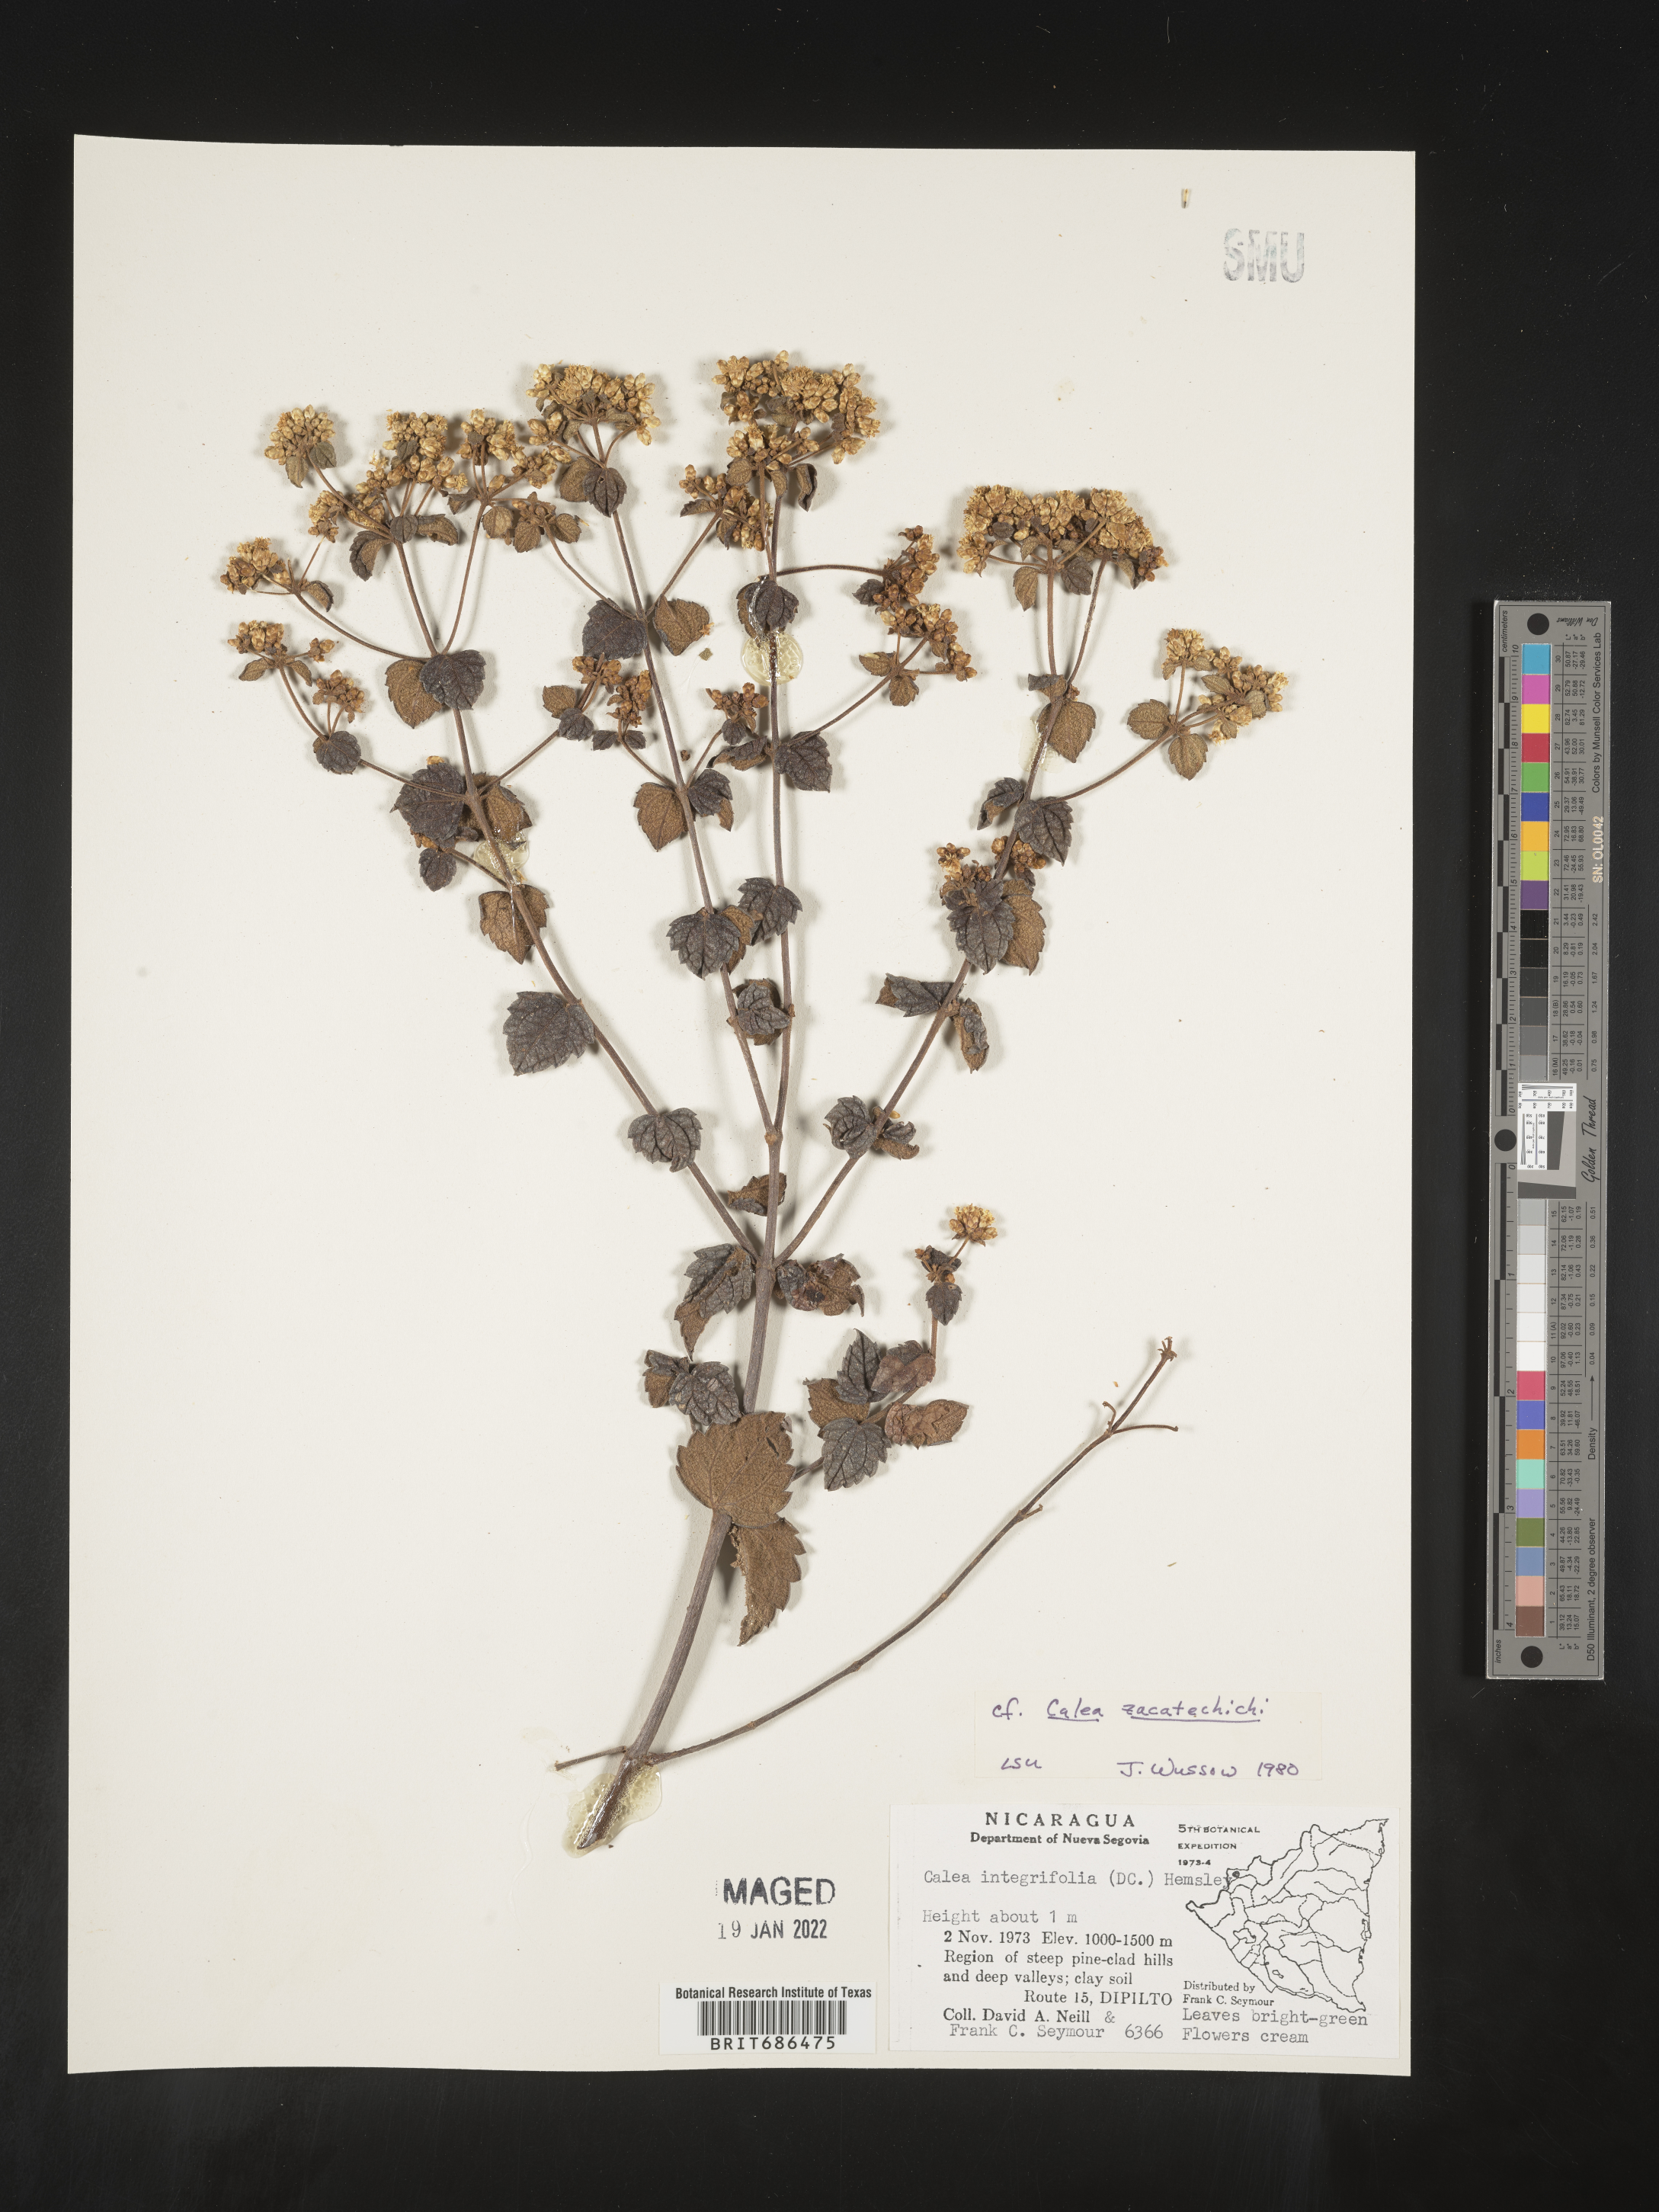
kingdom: Plantae
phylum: Tracheophyta
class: Magnoliopsida
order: Asterales
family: Asteraceae
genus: Calea
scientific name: Calea trichotoma
